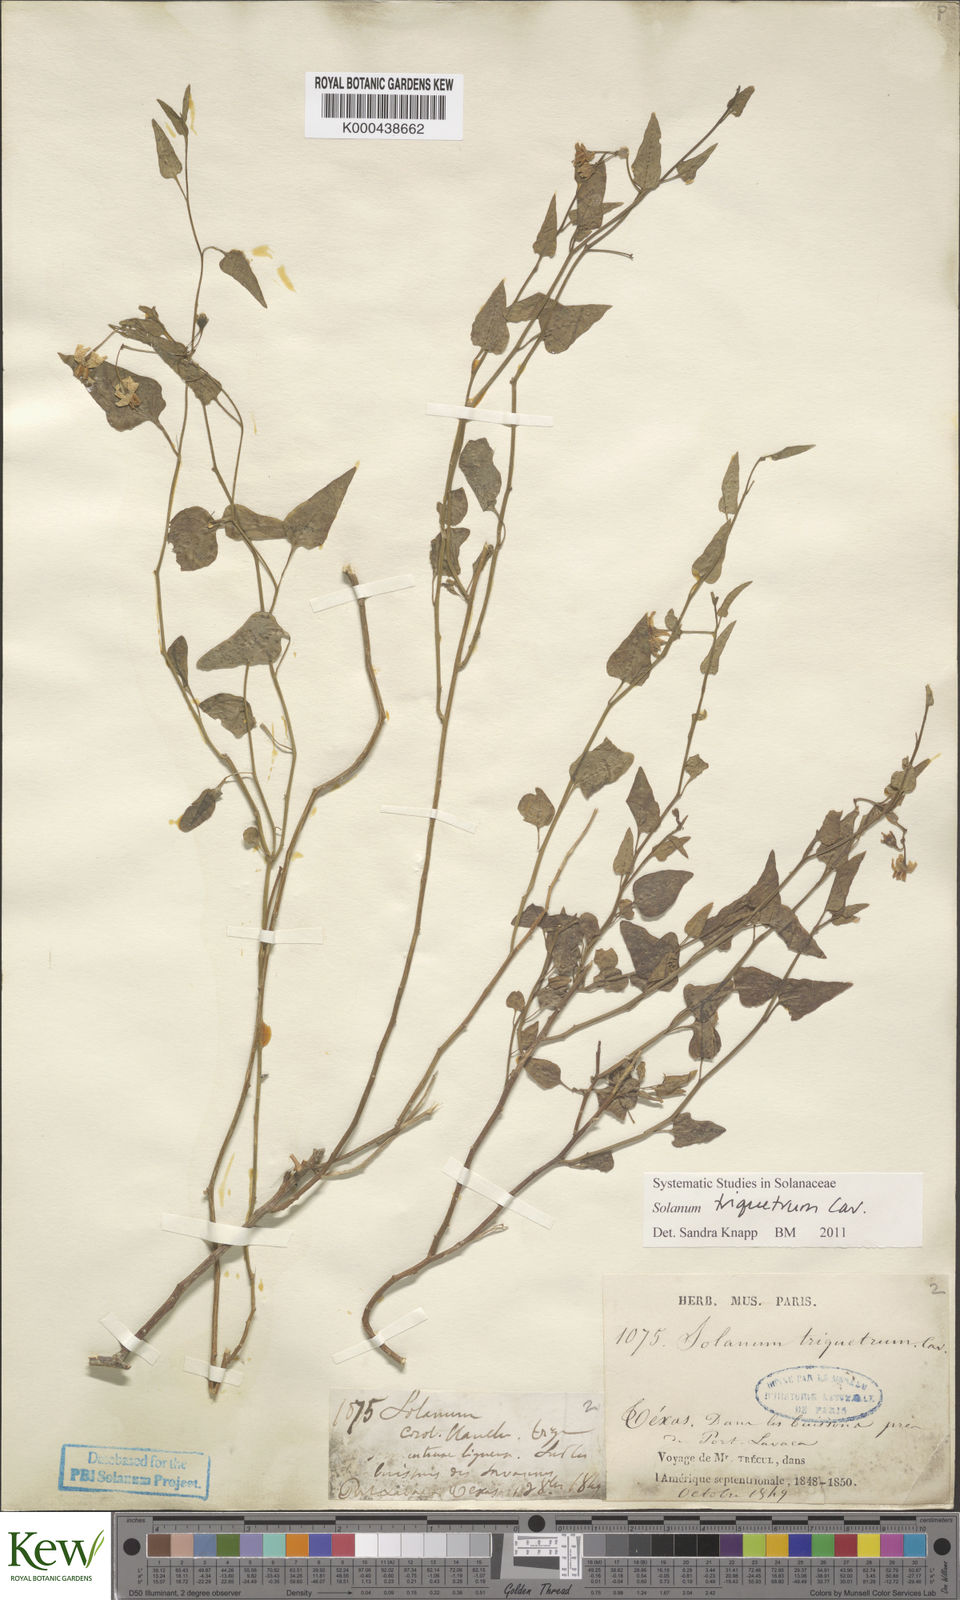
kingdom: Plantae
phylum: Tracheophyta
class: Magnoliopsida
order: Solanales
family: Solanaceae
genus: Solanum
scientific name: Solanum triquetrum
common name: Texas nightshade
